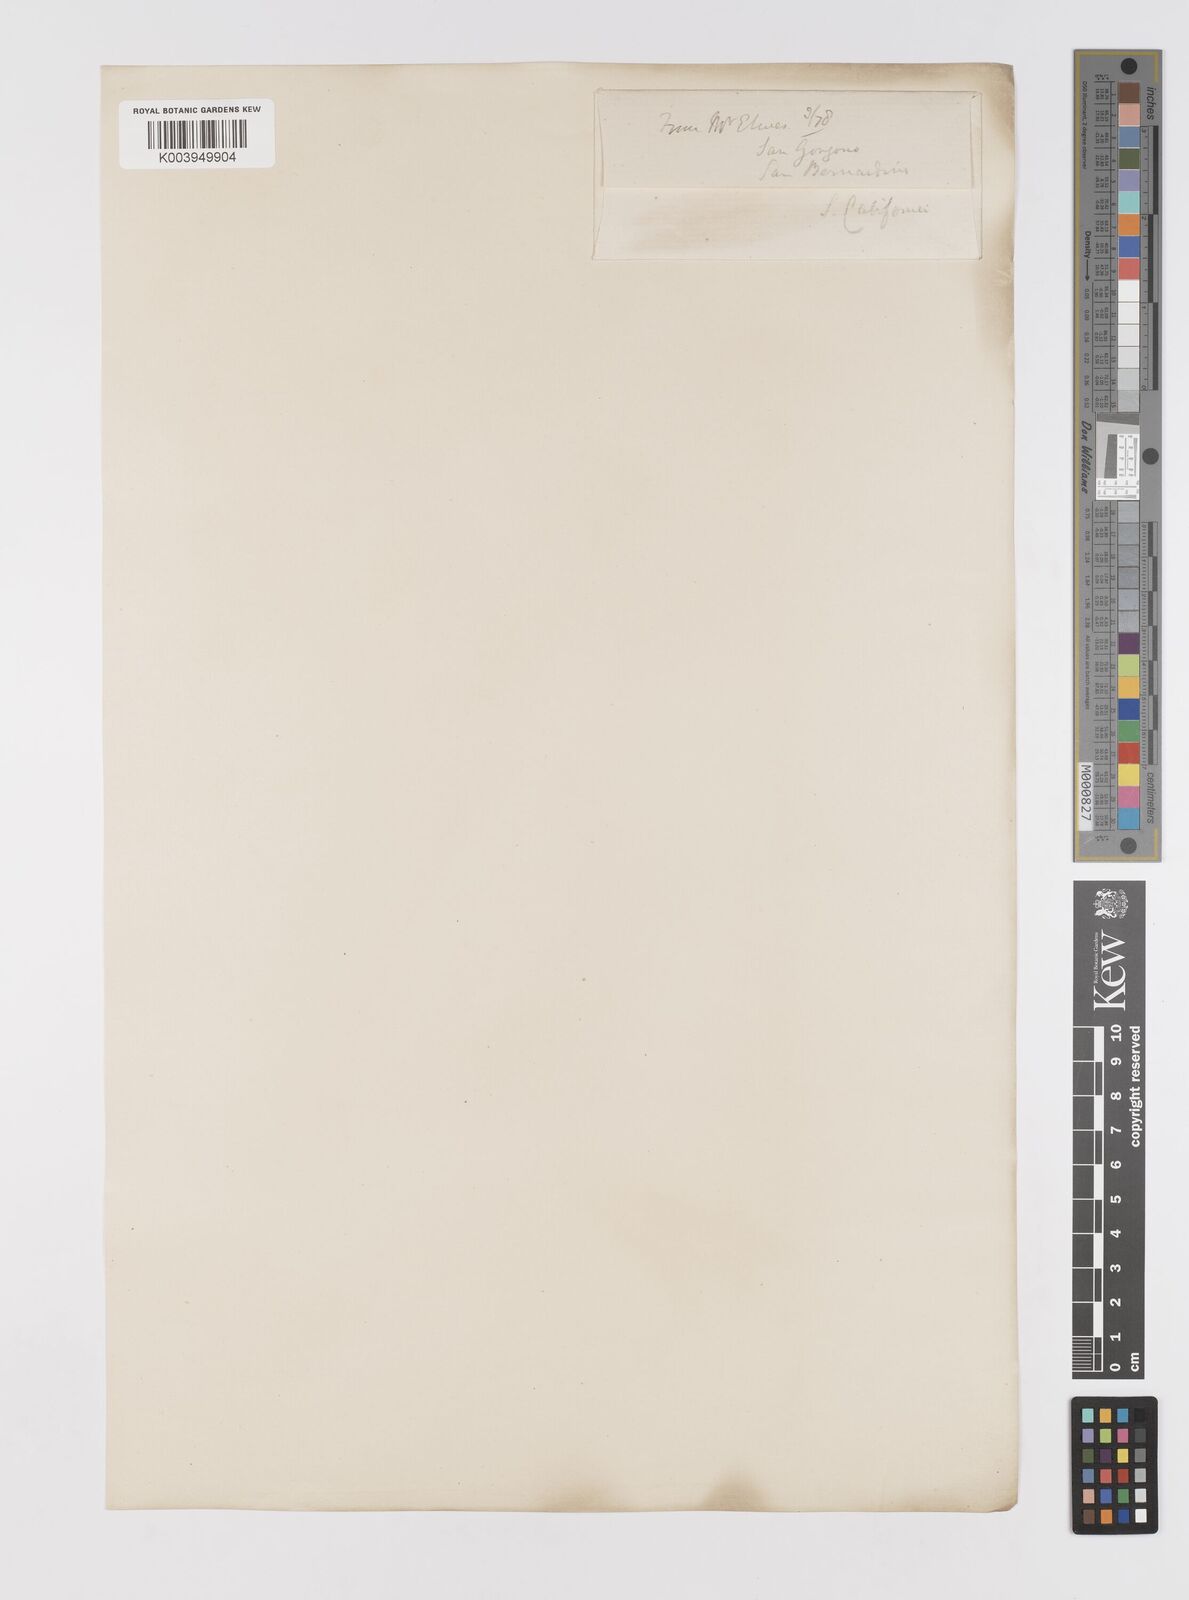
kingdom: Plantae
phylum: Tracheophyta
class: Liliopsida
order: Liliales
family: Liliaceae
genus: Lilium
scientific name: Lilium parryi
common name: Lemon lily
